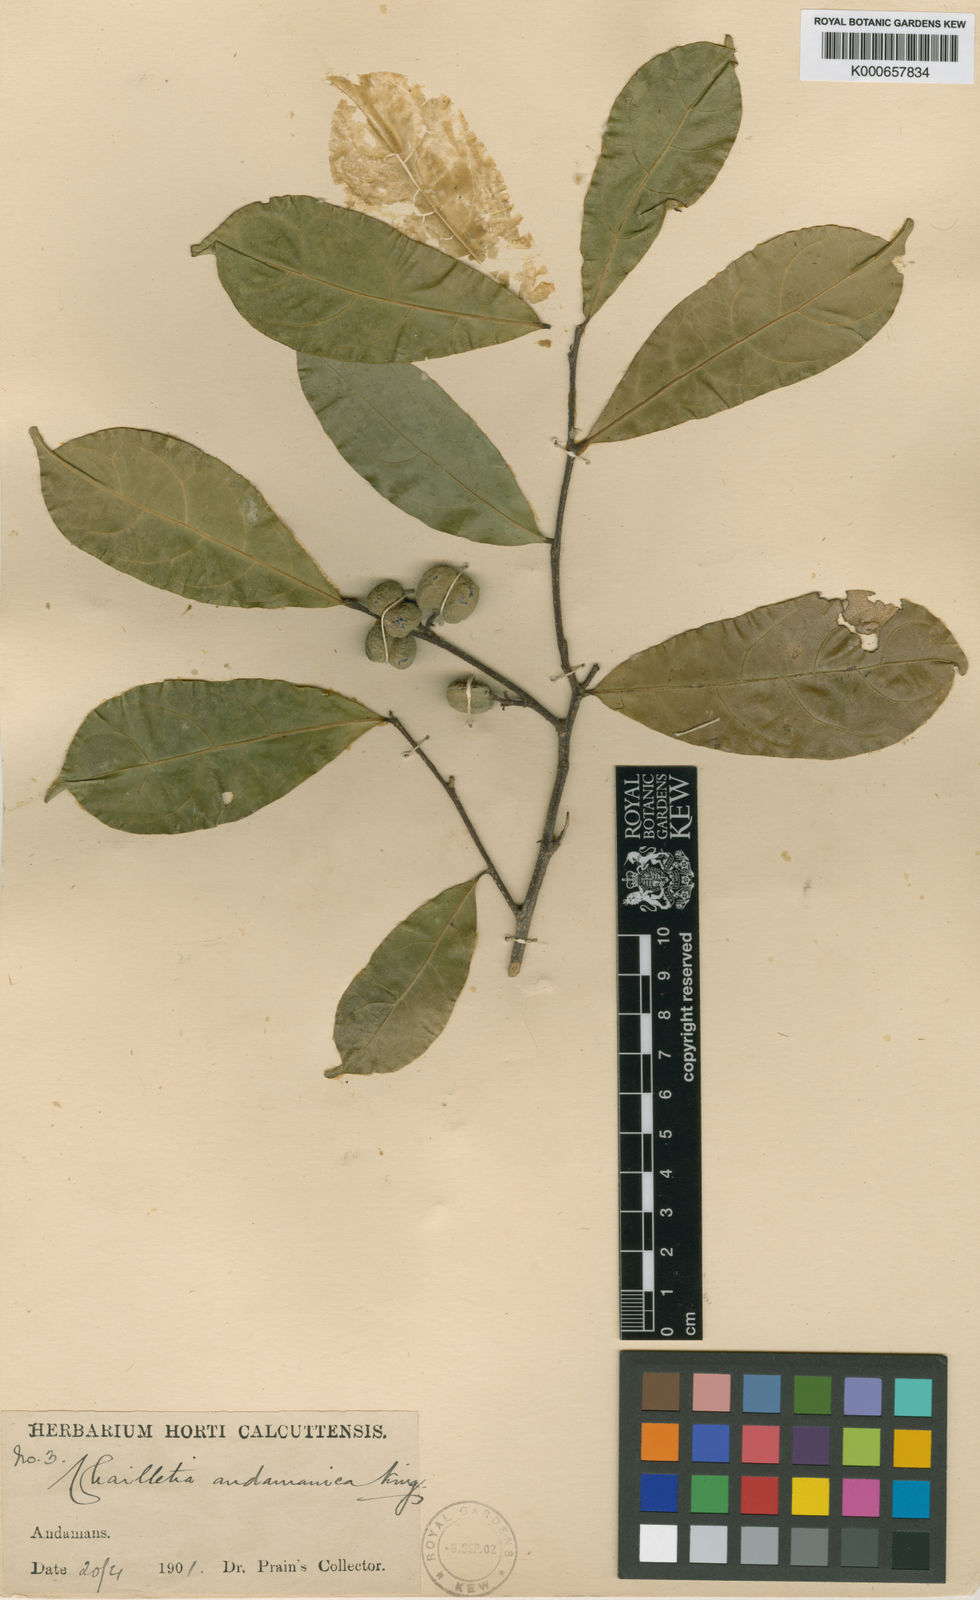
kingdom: Plantae
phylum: Tracheophyta
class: Magnoliopsida
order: Malpighiales
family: Dichapetalaceae
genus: Dichapetalum
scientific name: Dichapetalum gelonioides
